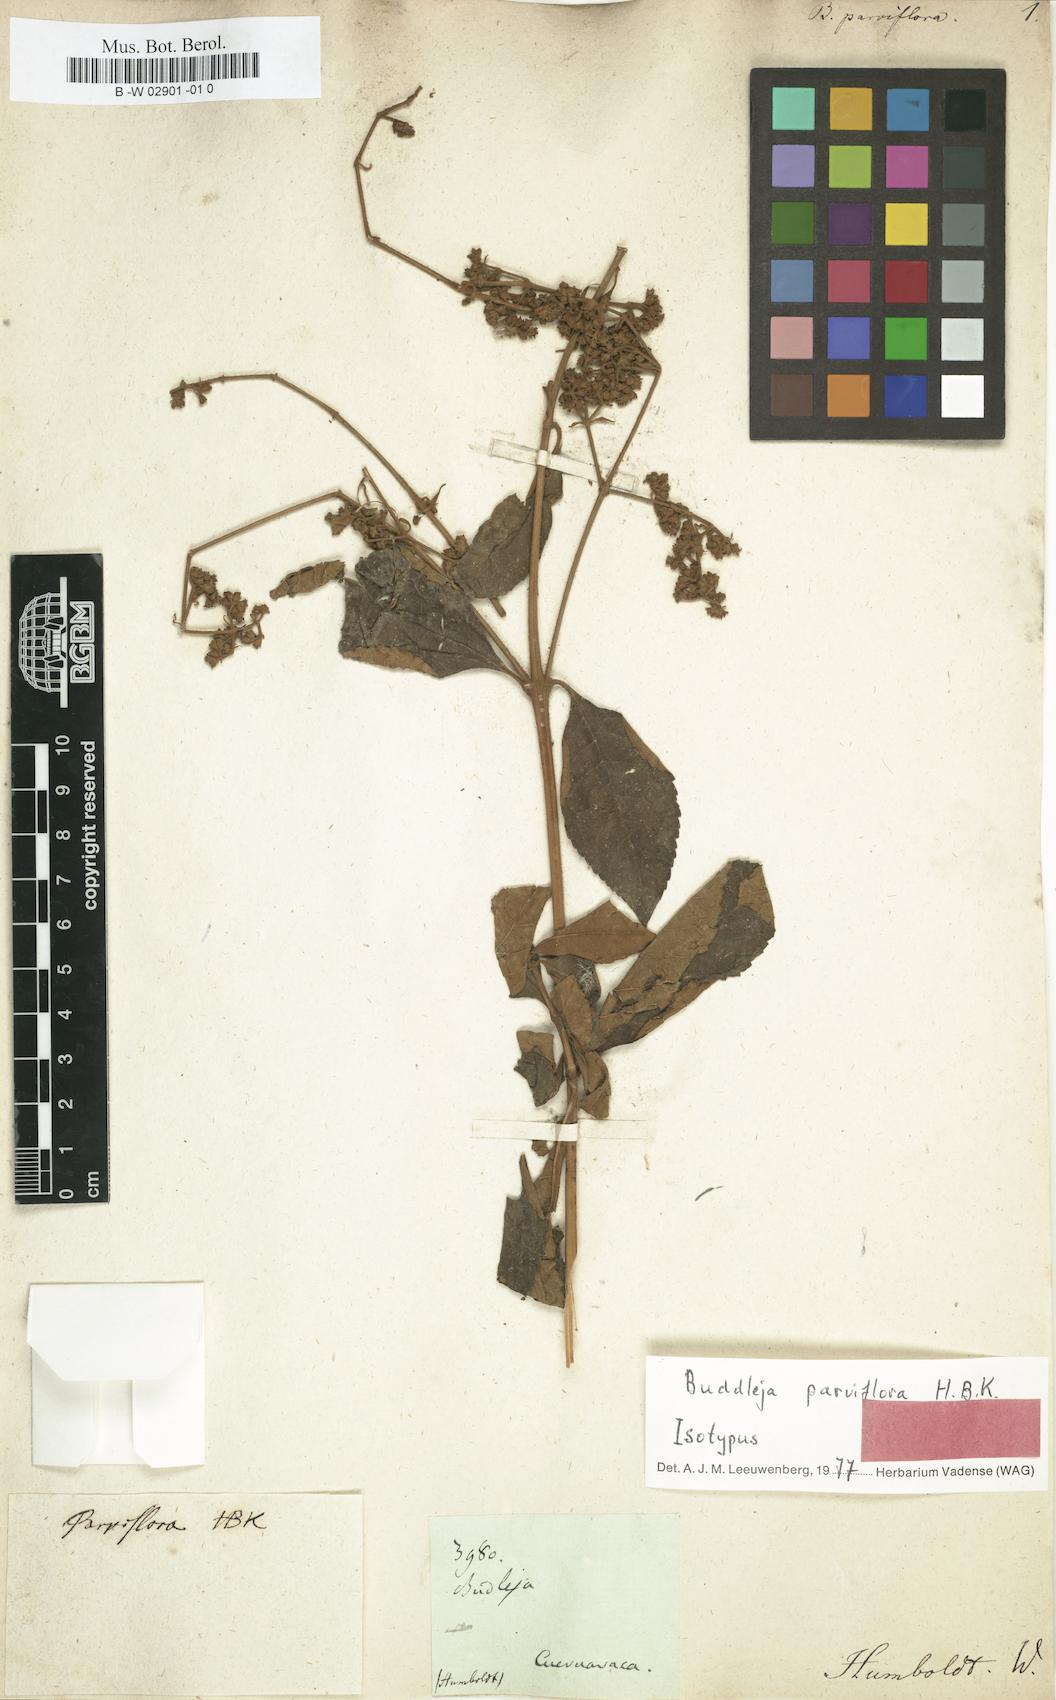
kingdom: Plantae
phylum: Tracheophyta
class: Magnoliopsida
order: Lamiales
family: Scrophulariaceae
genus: Buddleja
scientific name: Buddleja parviflora
